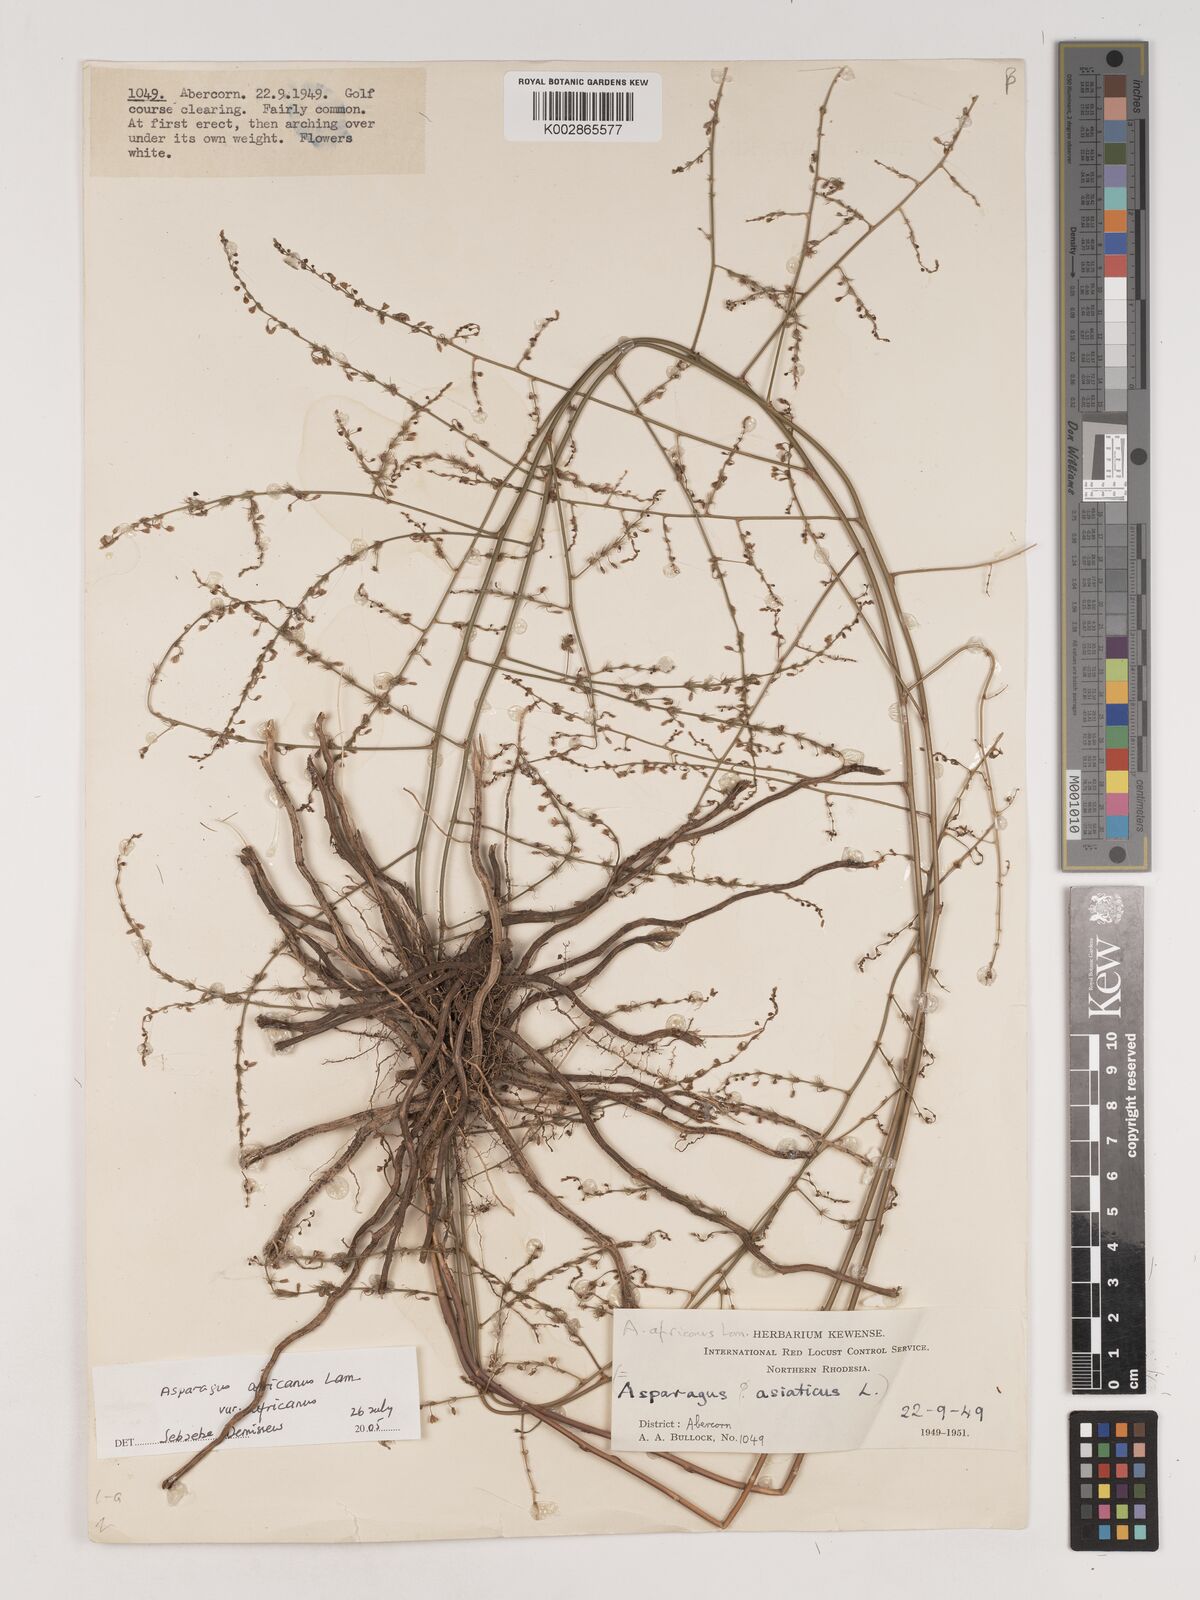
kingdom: Plantae
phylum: Tracheophyta
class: Liliopsida
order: Asparagales
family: Asparagaceae
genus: Asparagus
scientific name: Asparagus
